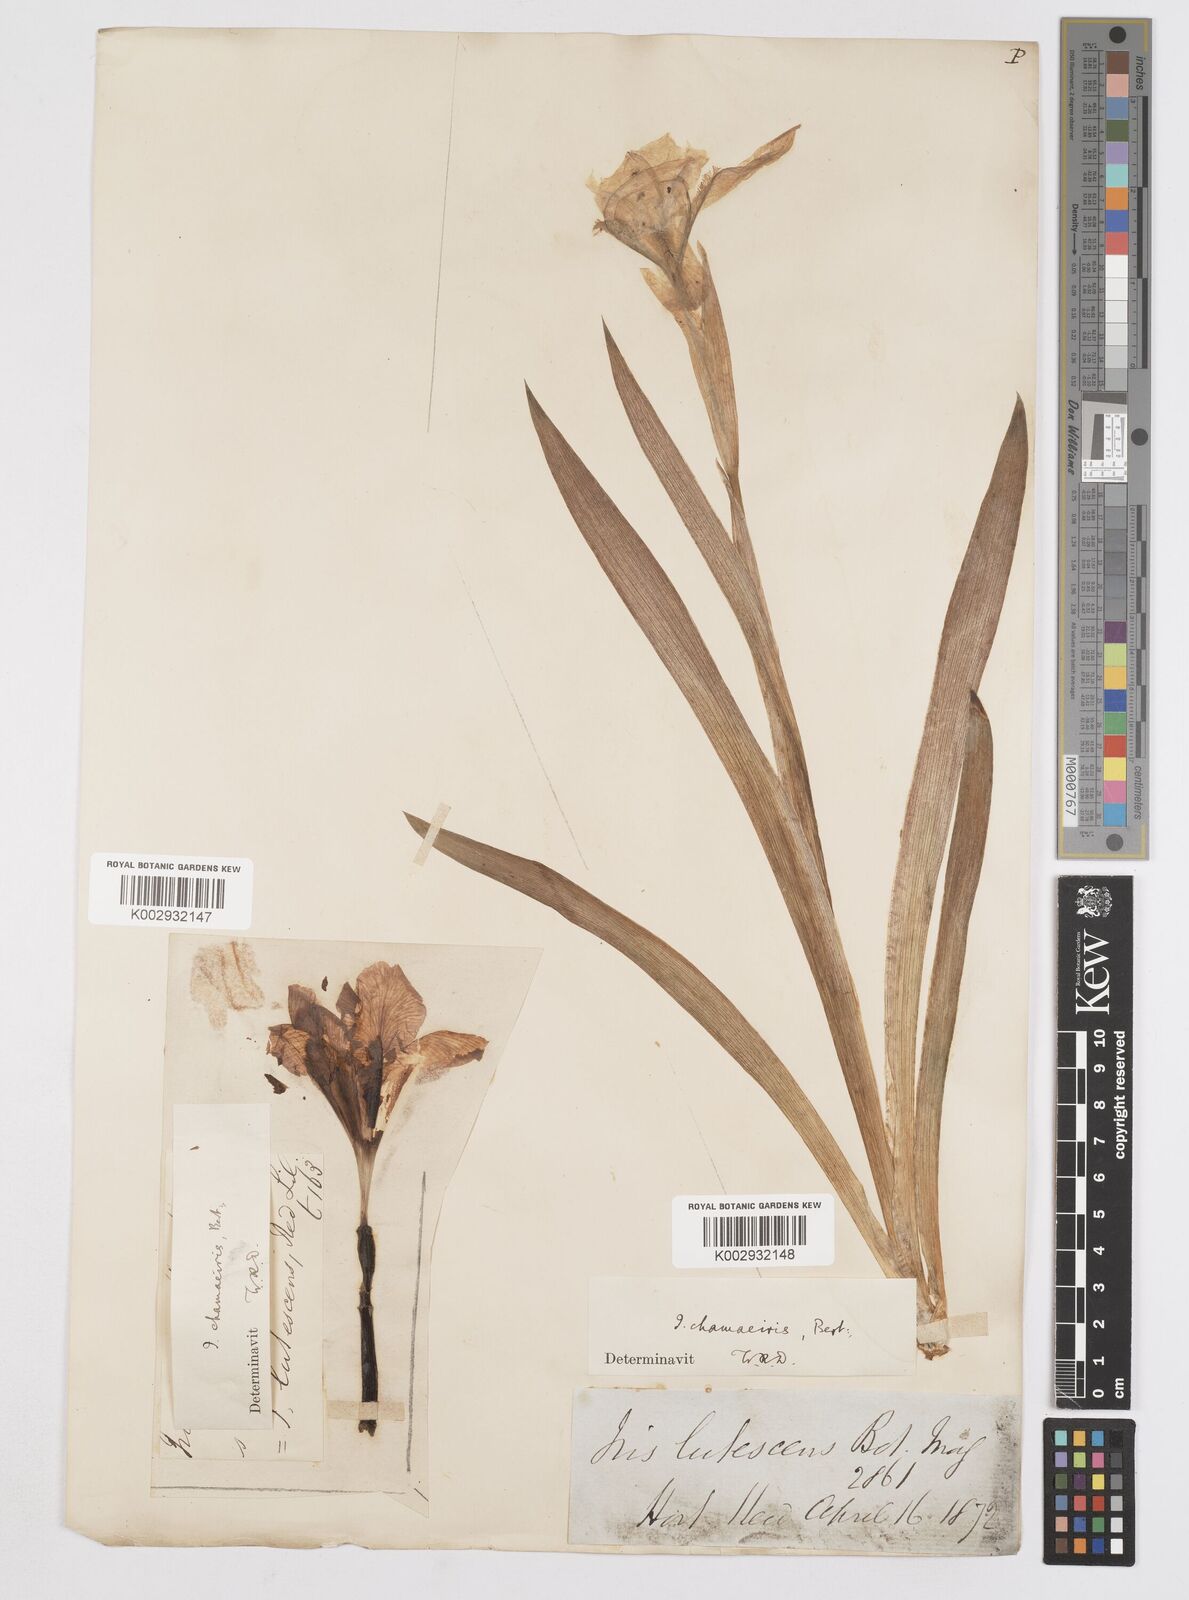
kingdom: Plantae
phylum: Tracheophyta
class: Liliopsida
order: Asparagales
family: Iridaceae
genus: Iris
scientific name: Iris lutescens
